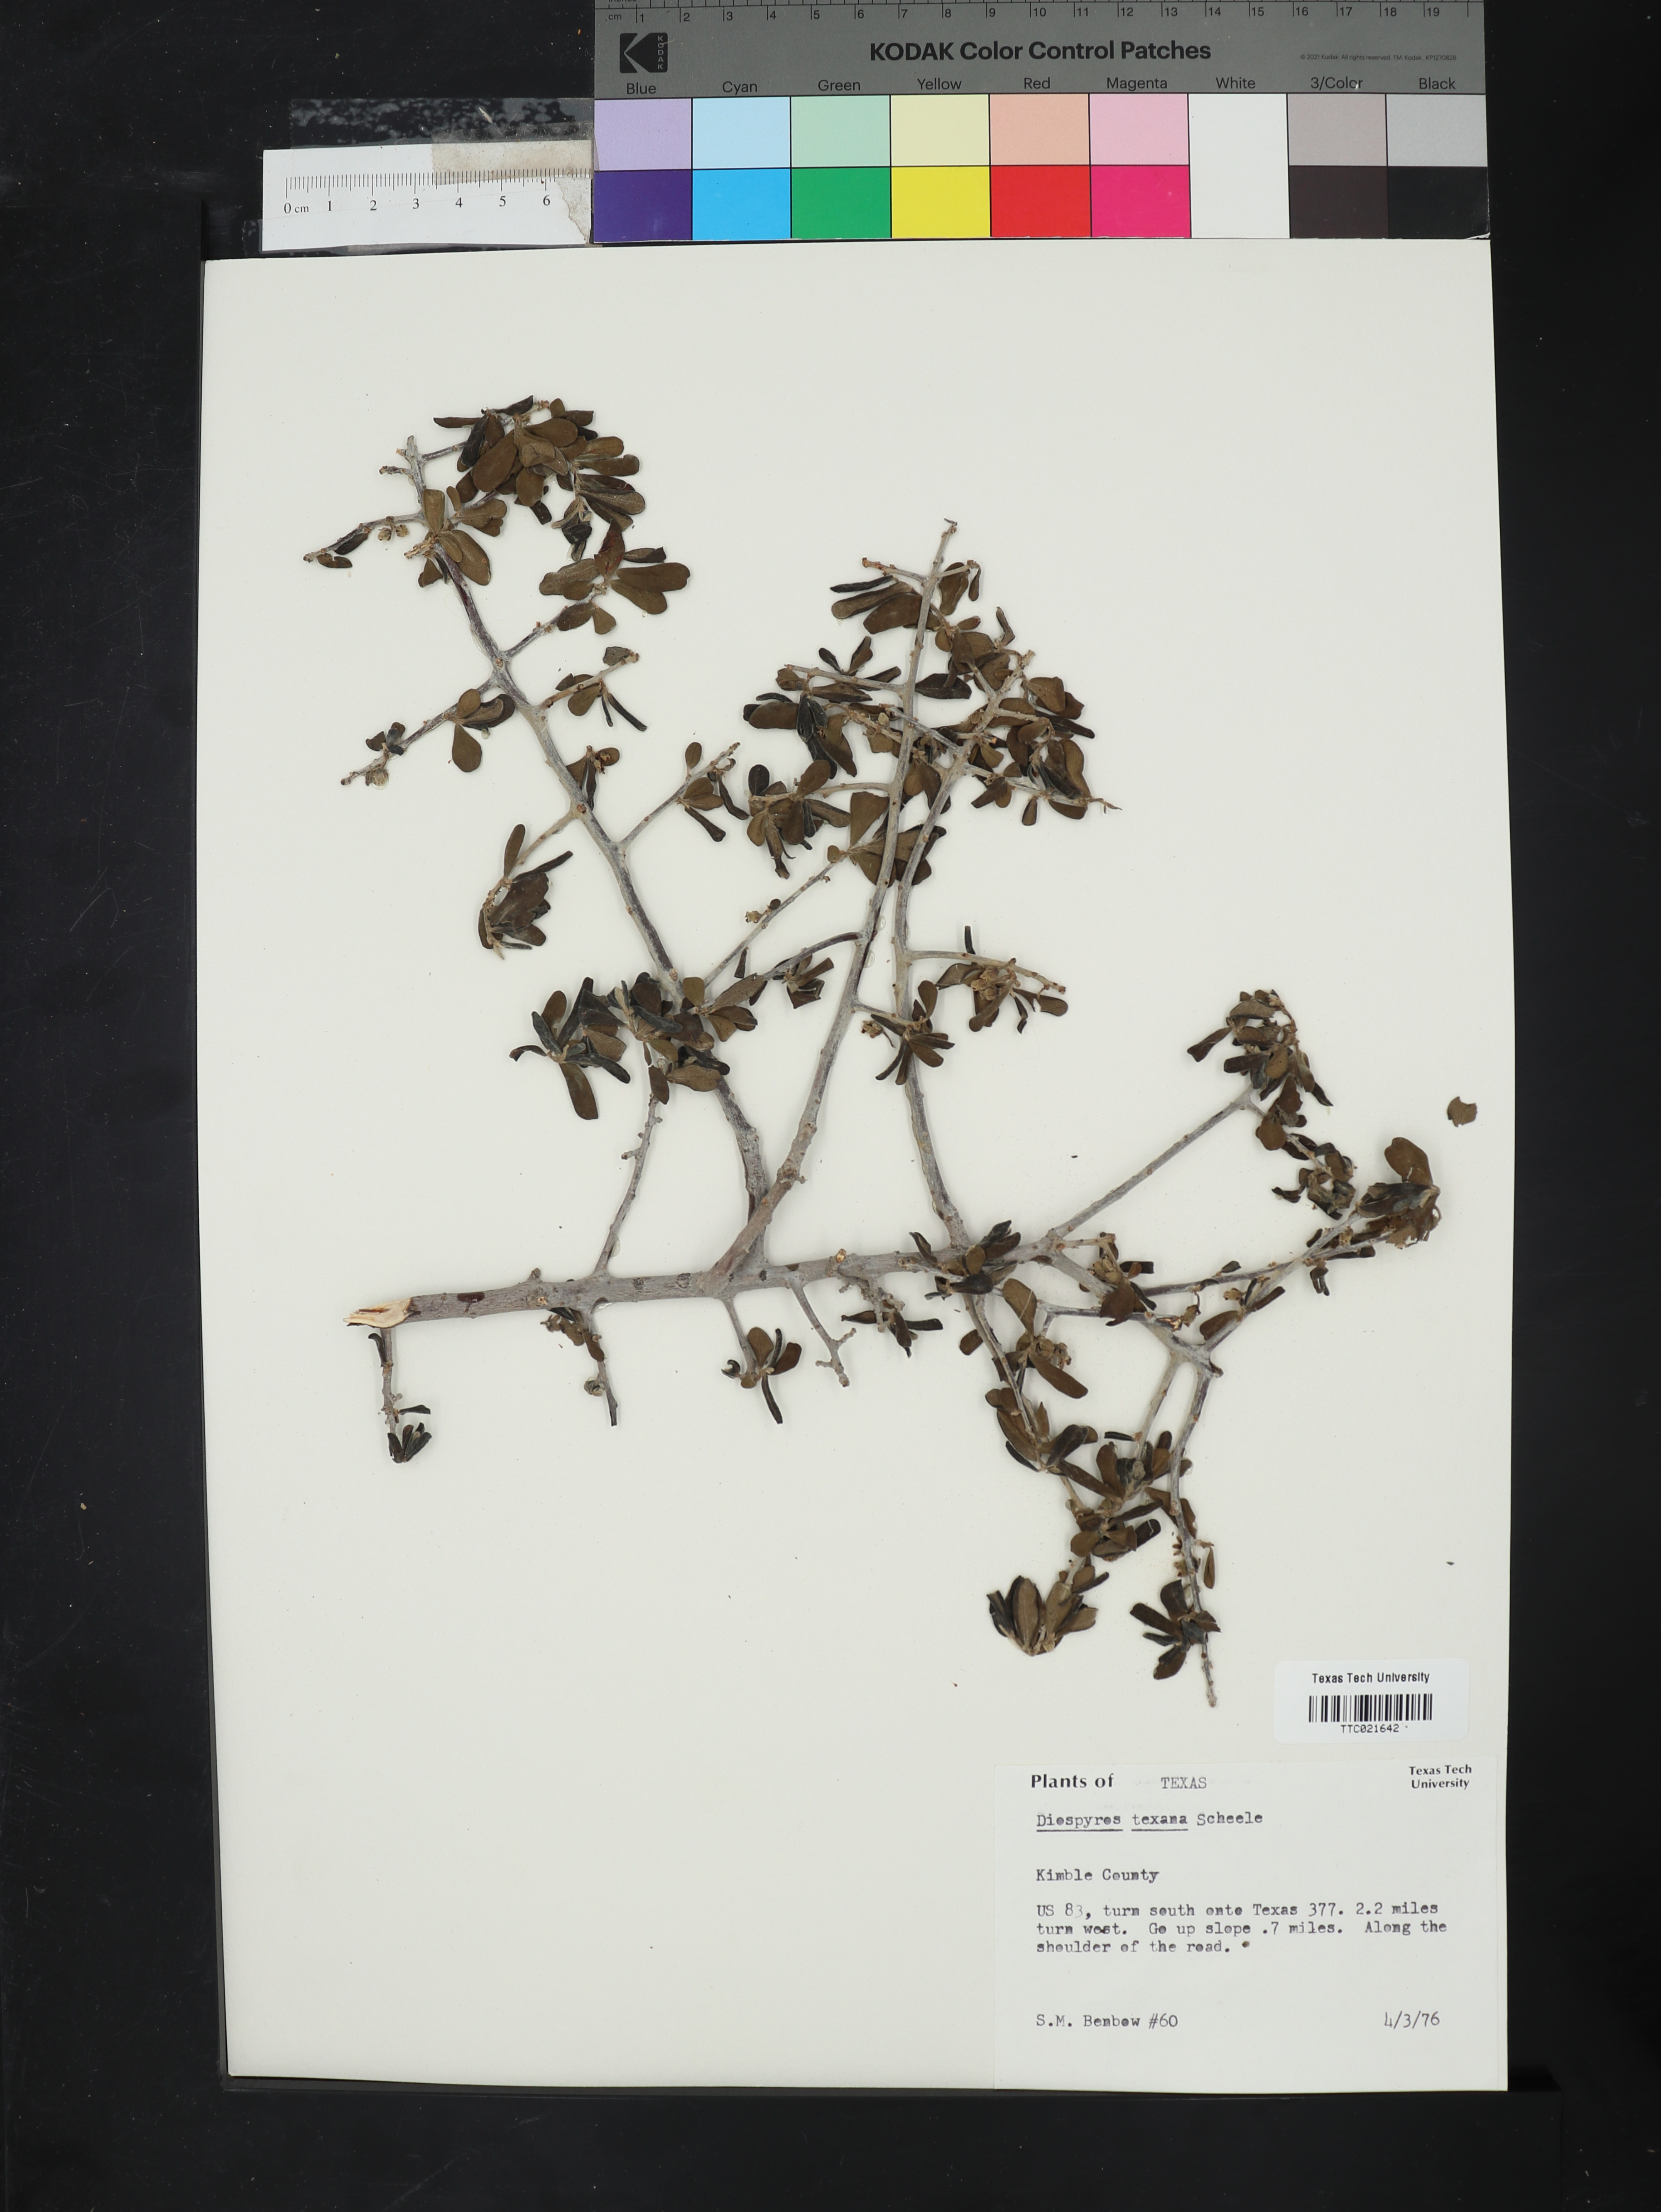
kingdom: Plantae
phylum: Tracheophyta
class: Magnoliopsida
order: Ericales
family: Ebenaceae
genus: Diospyros
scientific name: Diospyros texana
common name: Texas persimmon
